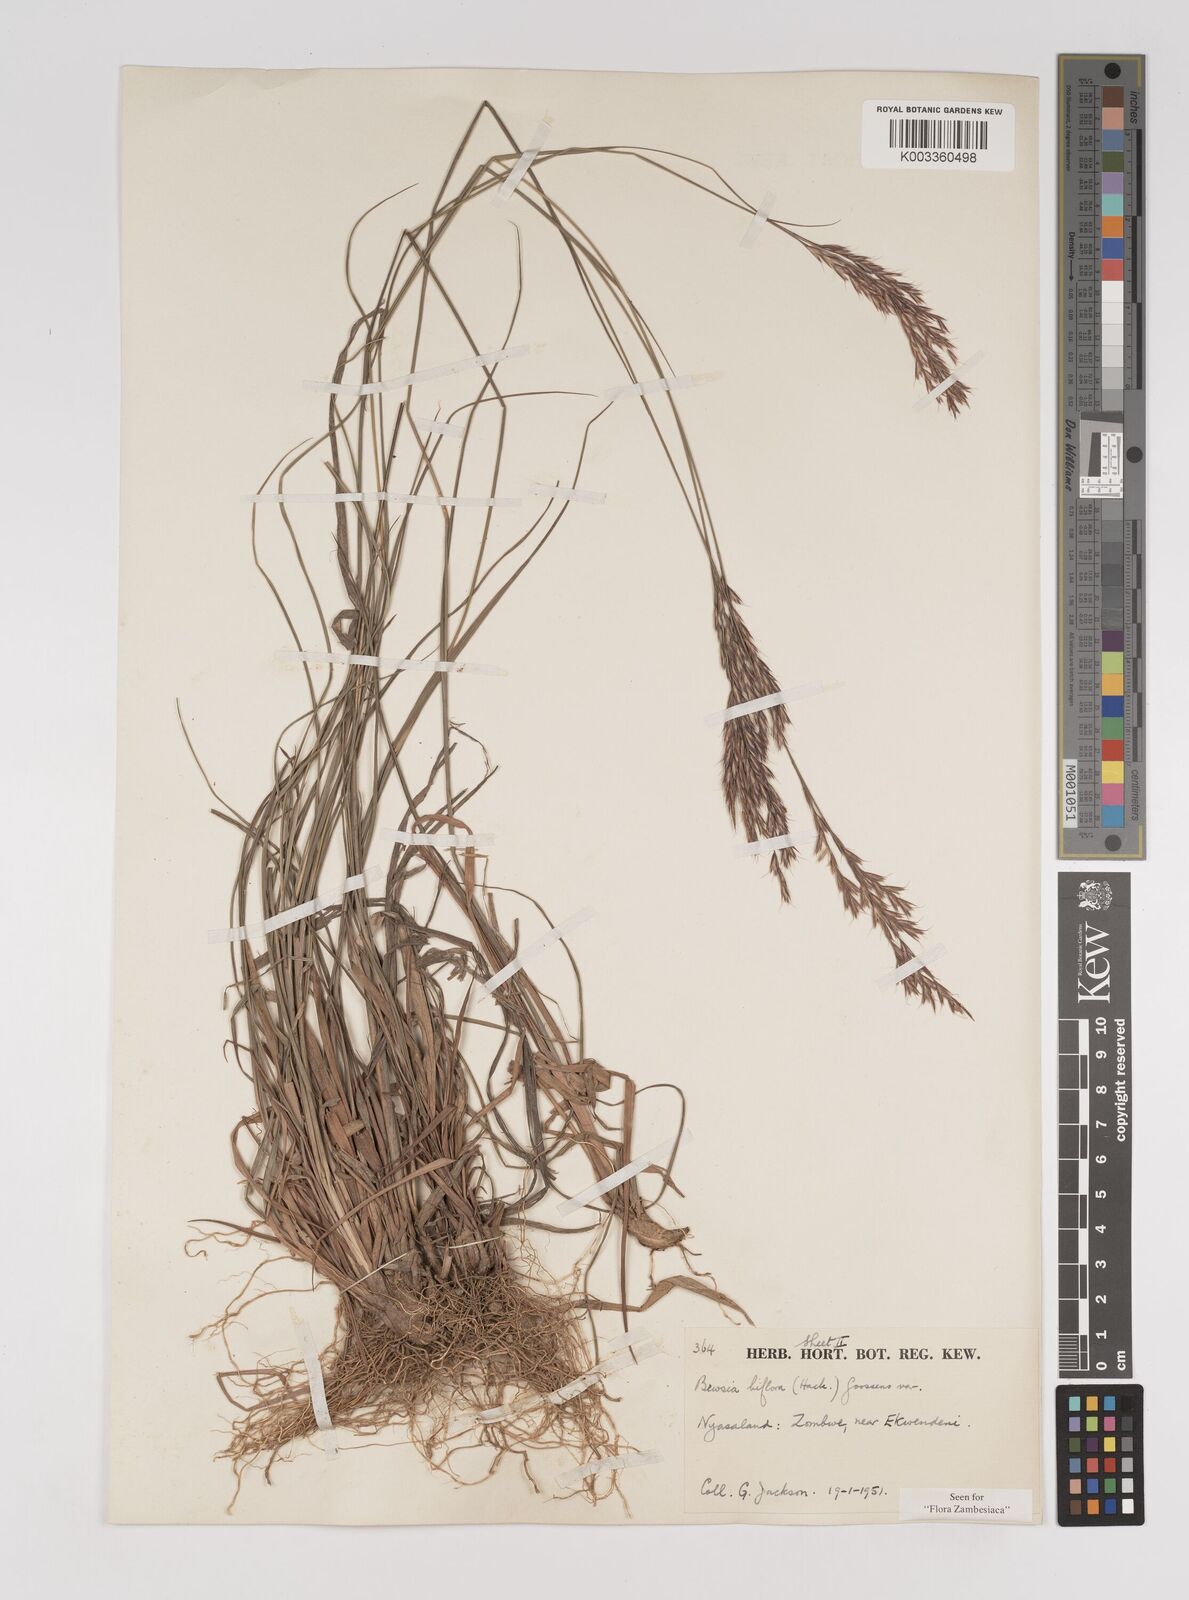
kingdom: Plantae
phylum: Tracheophyta
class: Liliopsida
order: Poales
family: Poaceae
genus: Bewsia
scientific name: Bewsia biflora
